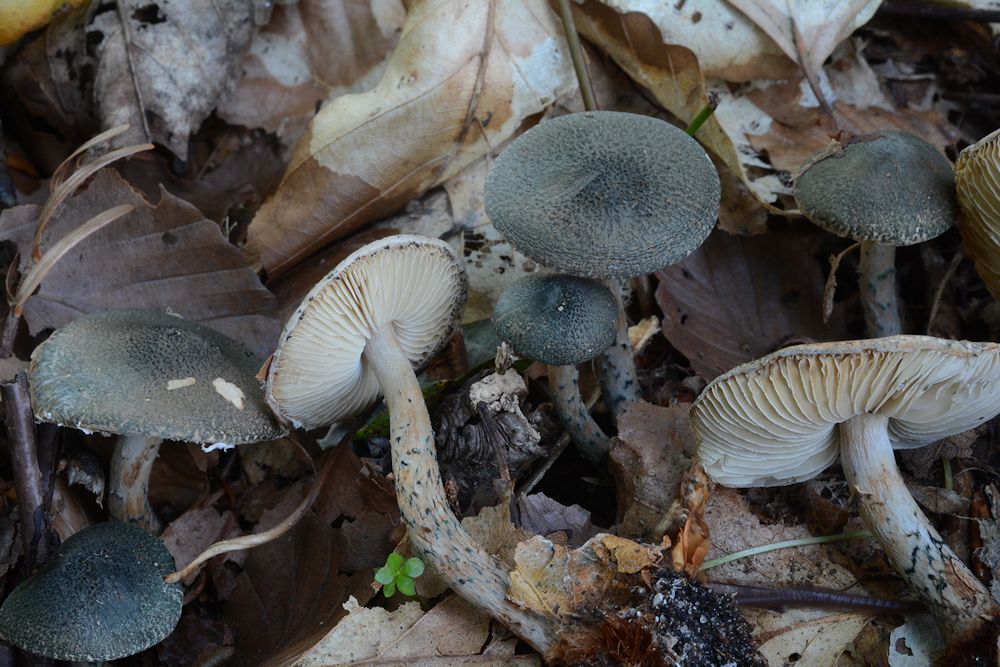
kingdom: Fungi
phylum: Basidiomycota
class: Agaricomycetes
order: Agaricales
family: Agaricaceae
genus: Lepiota
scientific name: Lepiota grangei
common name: grønskællet parasolhat
